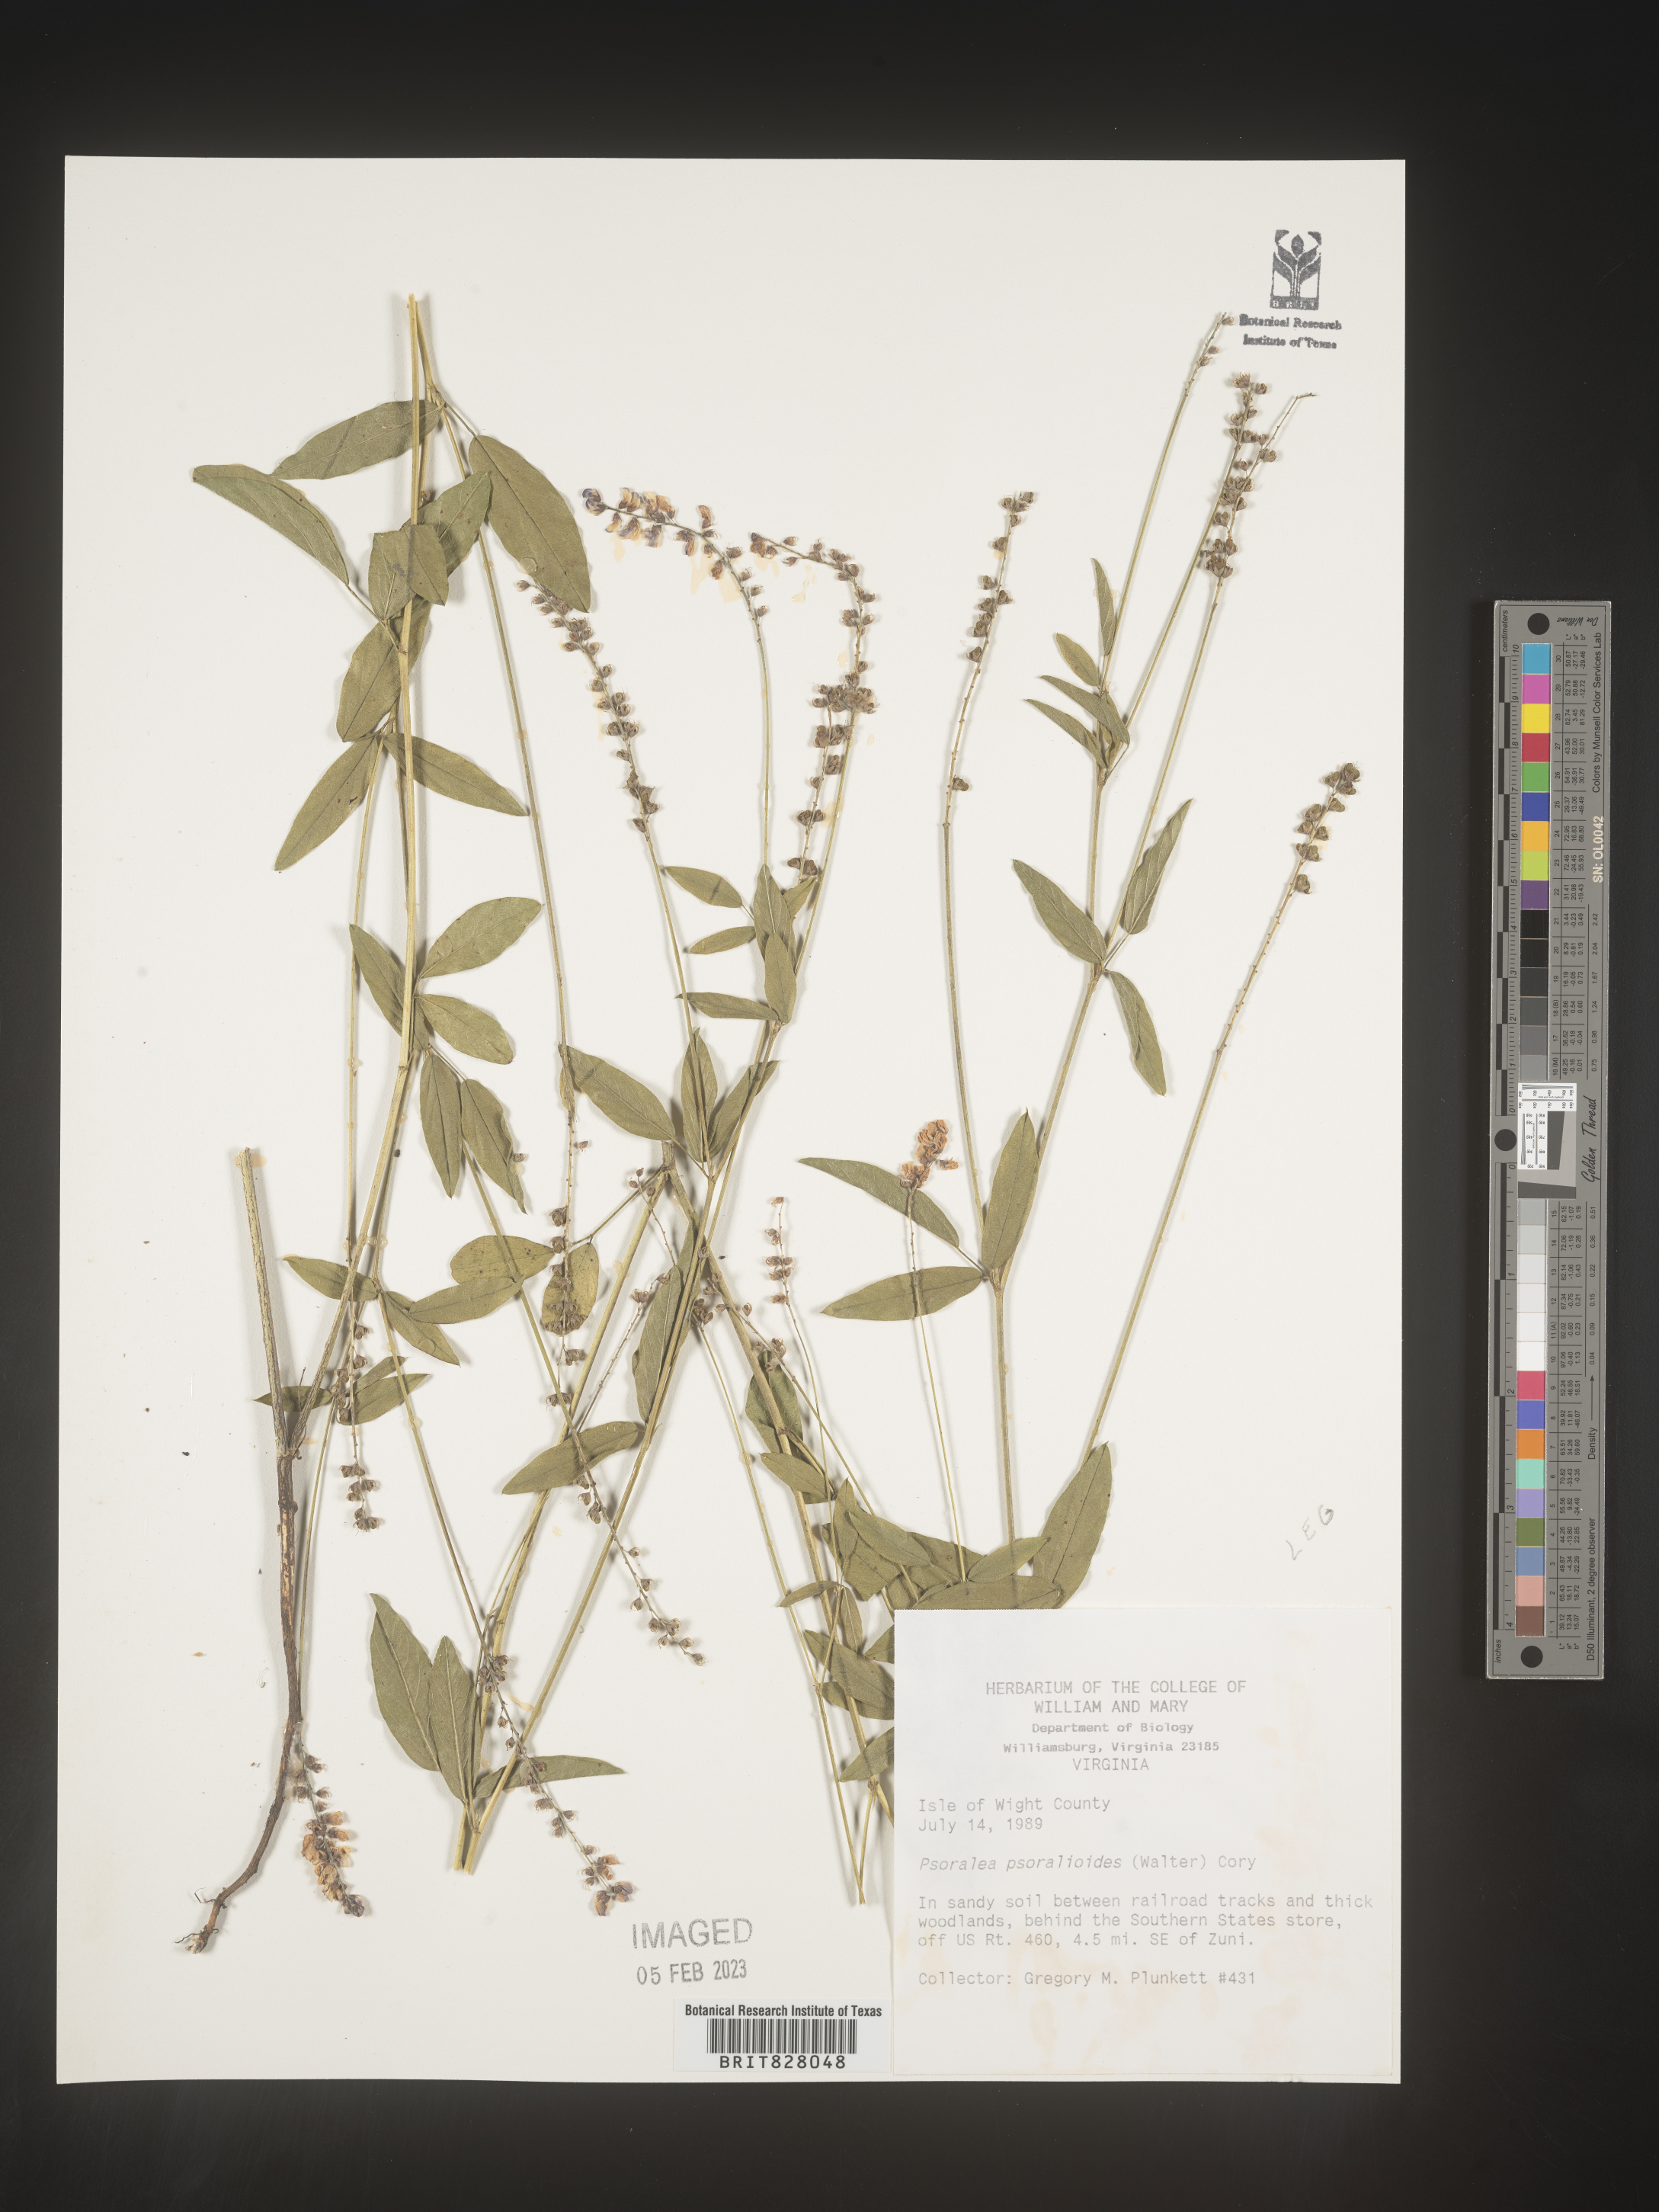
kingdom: Plantae
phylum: Tracheophyta
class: Magnoliopsida
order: Fabales
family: Fabaceae
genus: Orbexilum
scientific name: Orbexilum pedunculatum
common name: Sampson's snakeroot
